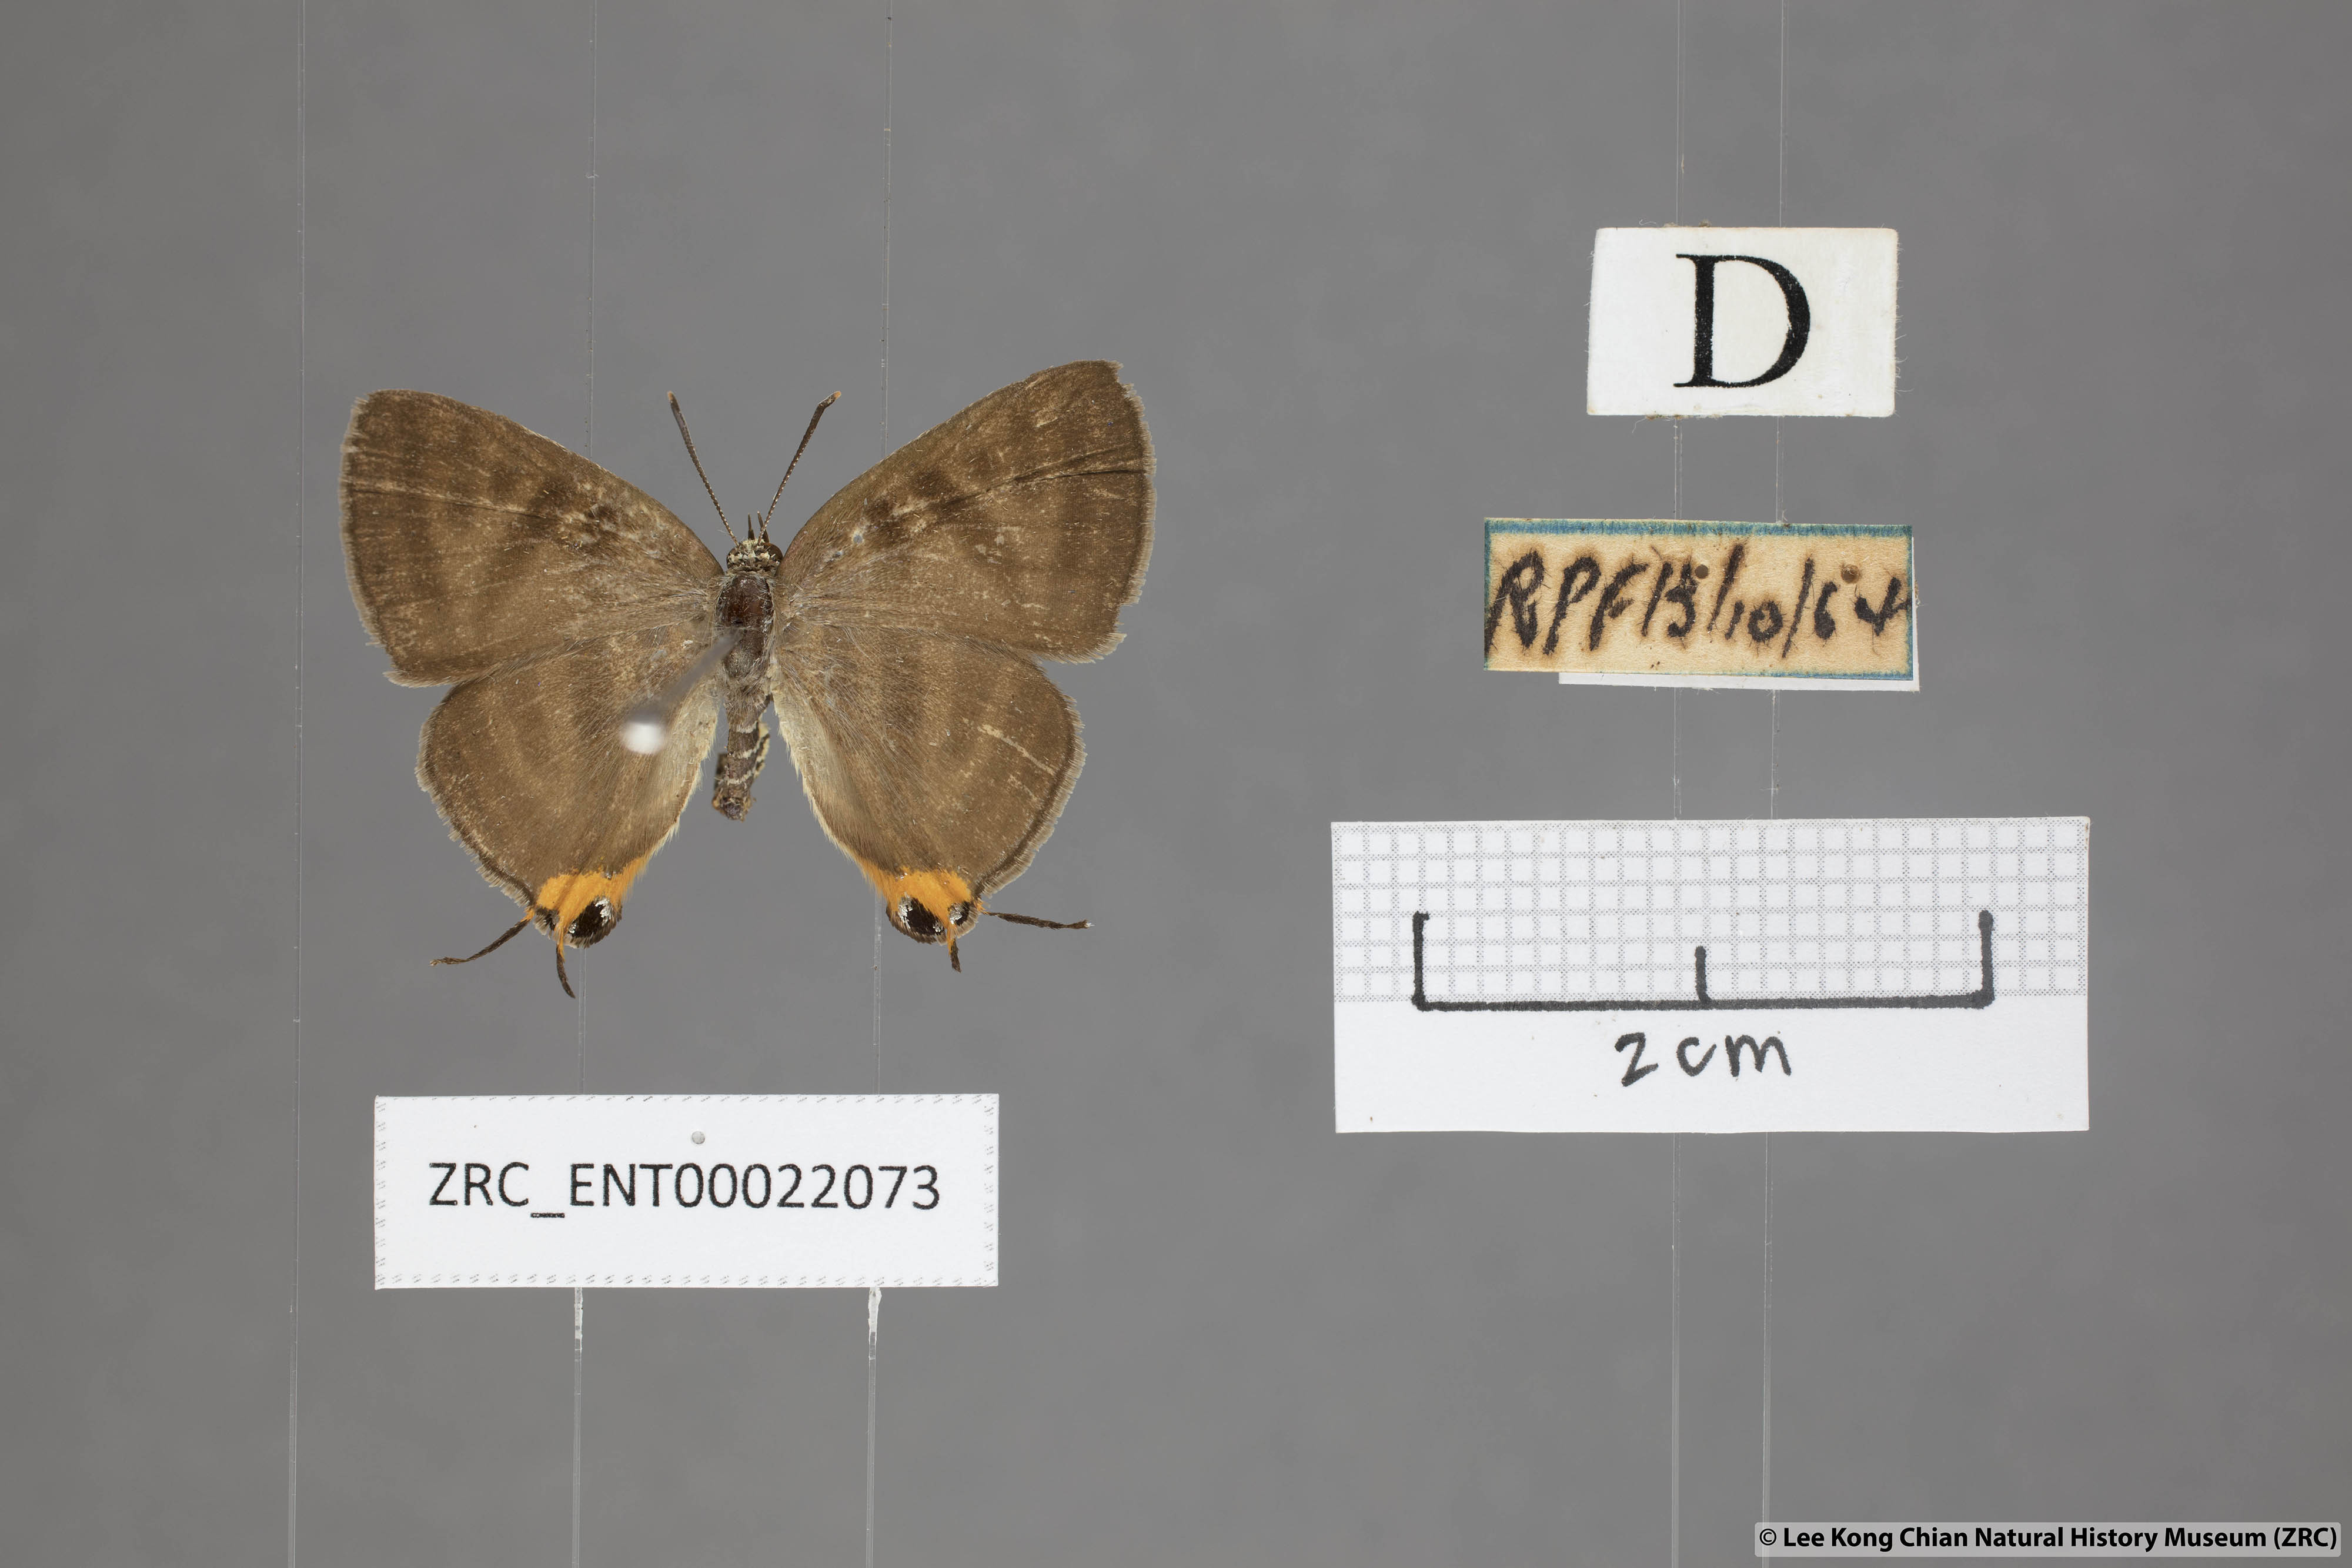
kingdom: Animalia
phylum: Arthropoda
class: Insecta
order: Lepidoptera
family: Lycaenidae
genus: Spindasis
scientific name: Spindasis lohita
